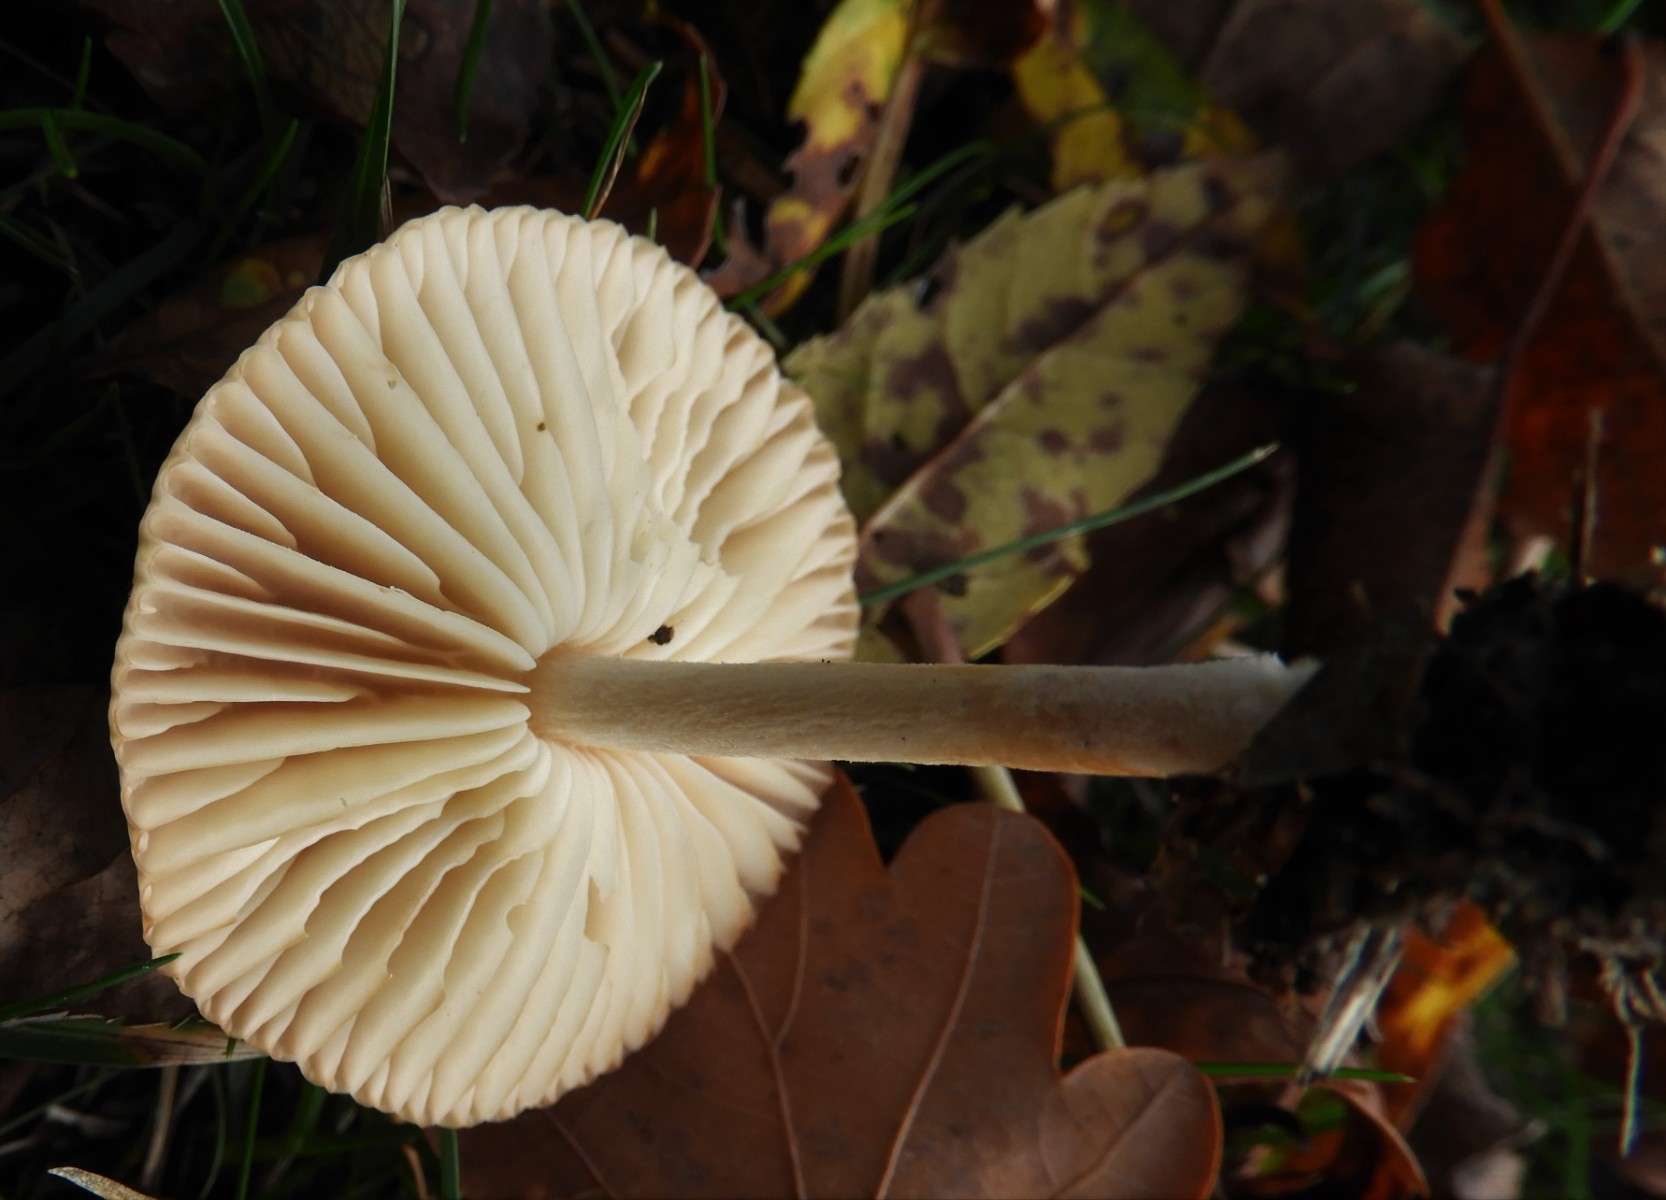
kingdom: Fungi
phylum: Basidiomycota
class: Agaricomycetes
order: Agaricales
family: Marasmiaceae
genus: Marasmius
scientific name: Marasmius oreades
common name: elledans-bruskhat
